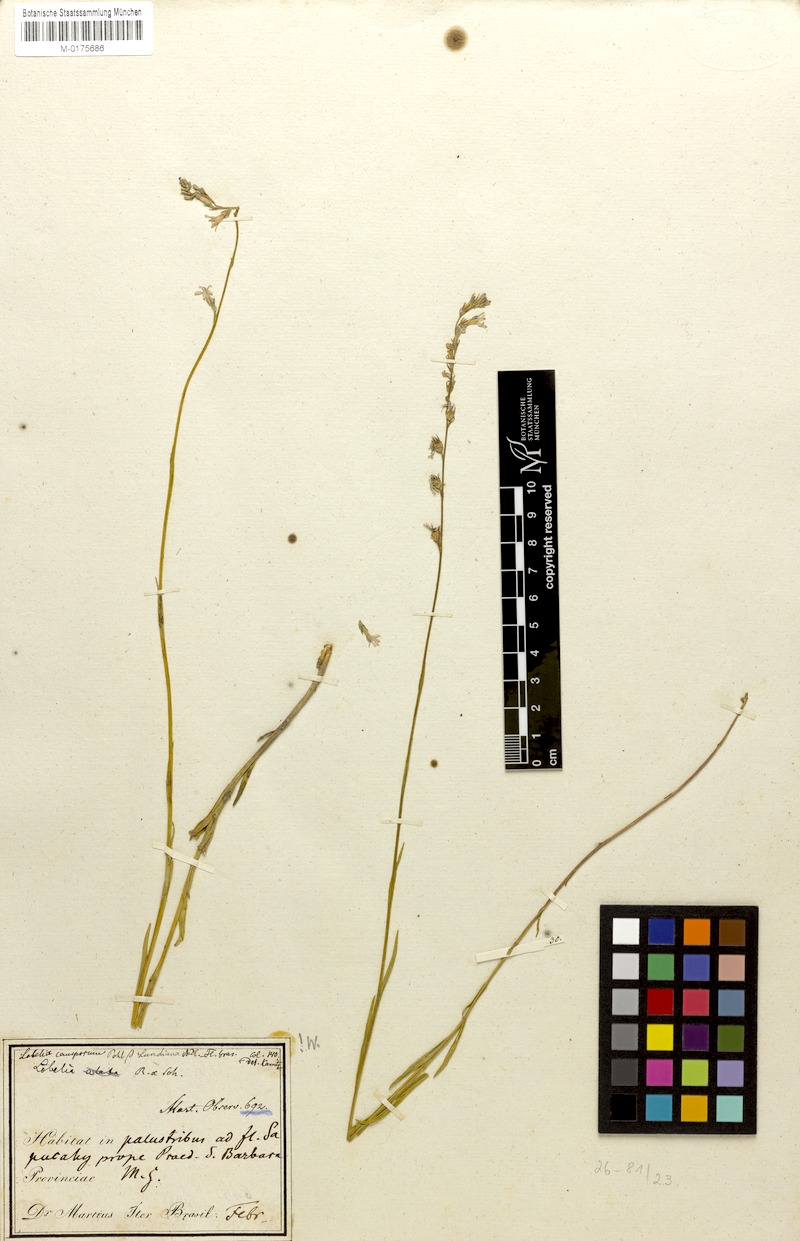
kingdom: Plantae
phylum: Tracheophyta
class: Magnoliopsida
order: Asterales
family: Campanulaceae
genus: Lobelia
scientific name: Lobelia camporum
